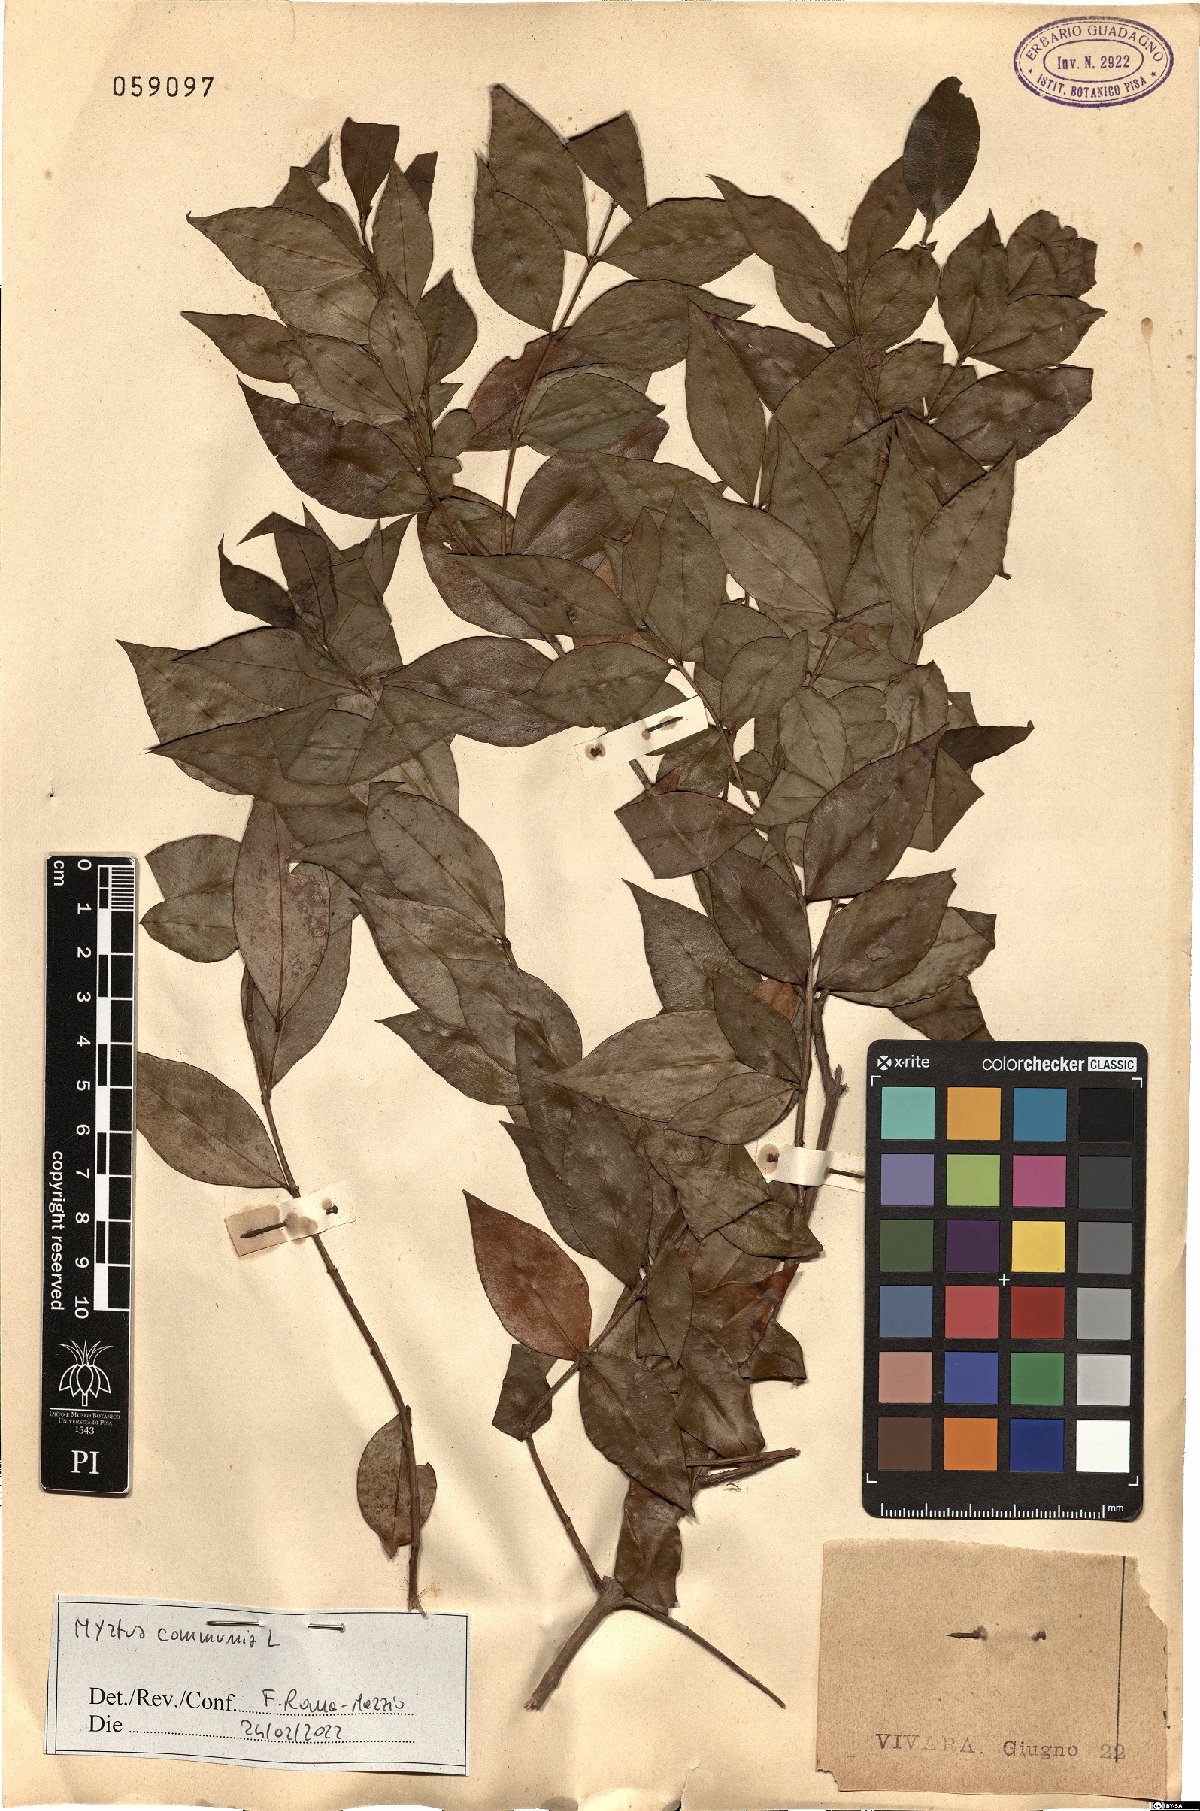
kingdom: Plantae
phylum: Tracheophyta
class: Magnoliopsida
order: Myrtales
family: Myrtaceae
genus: Myrtus
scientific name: Myrtus communis
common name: Myrtle
